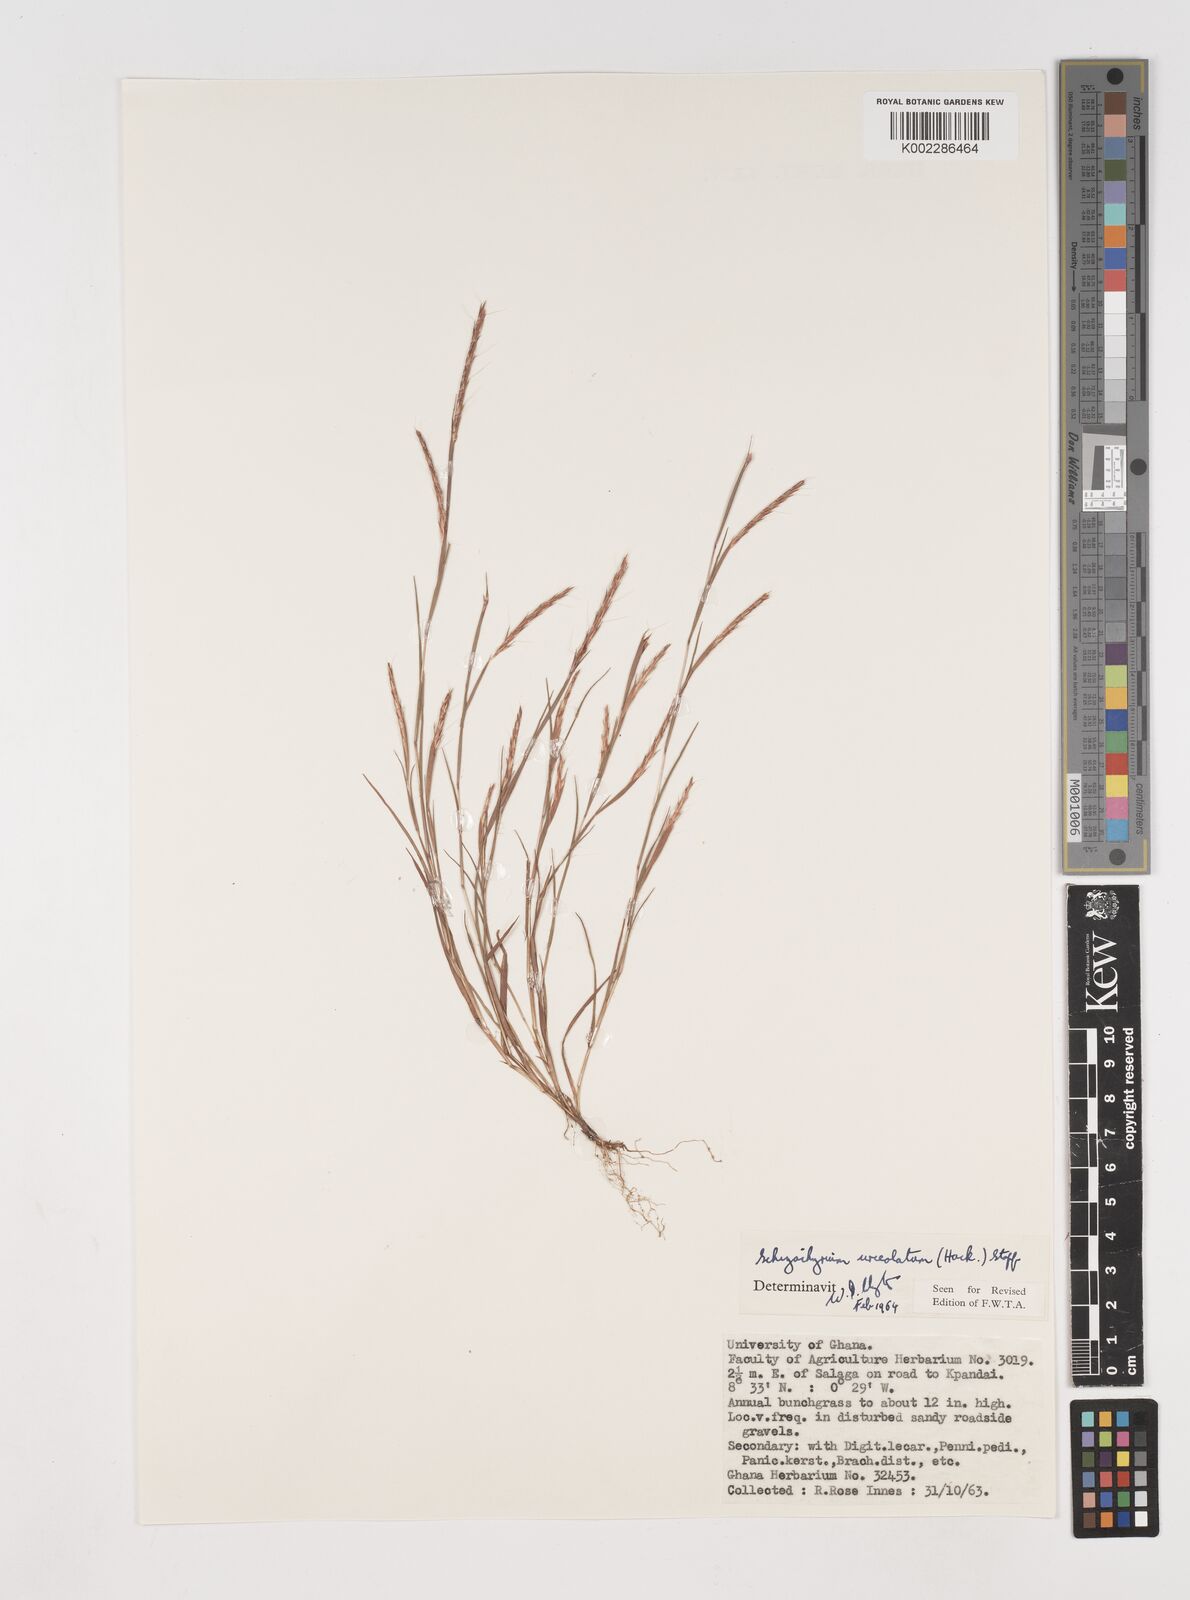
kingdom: Plantae
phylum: Tracheophyta
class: Liliopsida
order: Poales
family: Poaceae
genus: Schizachyrium
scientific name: Schizachyrium urceolatum
